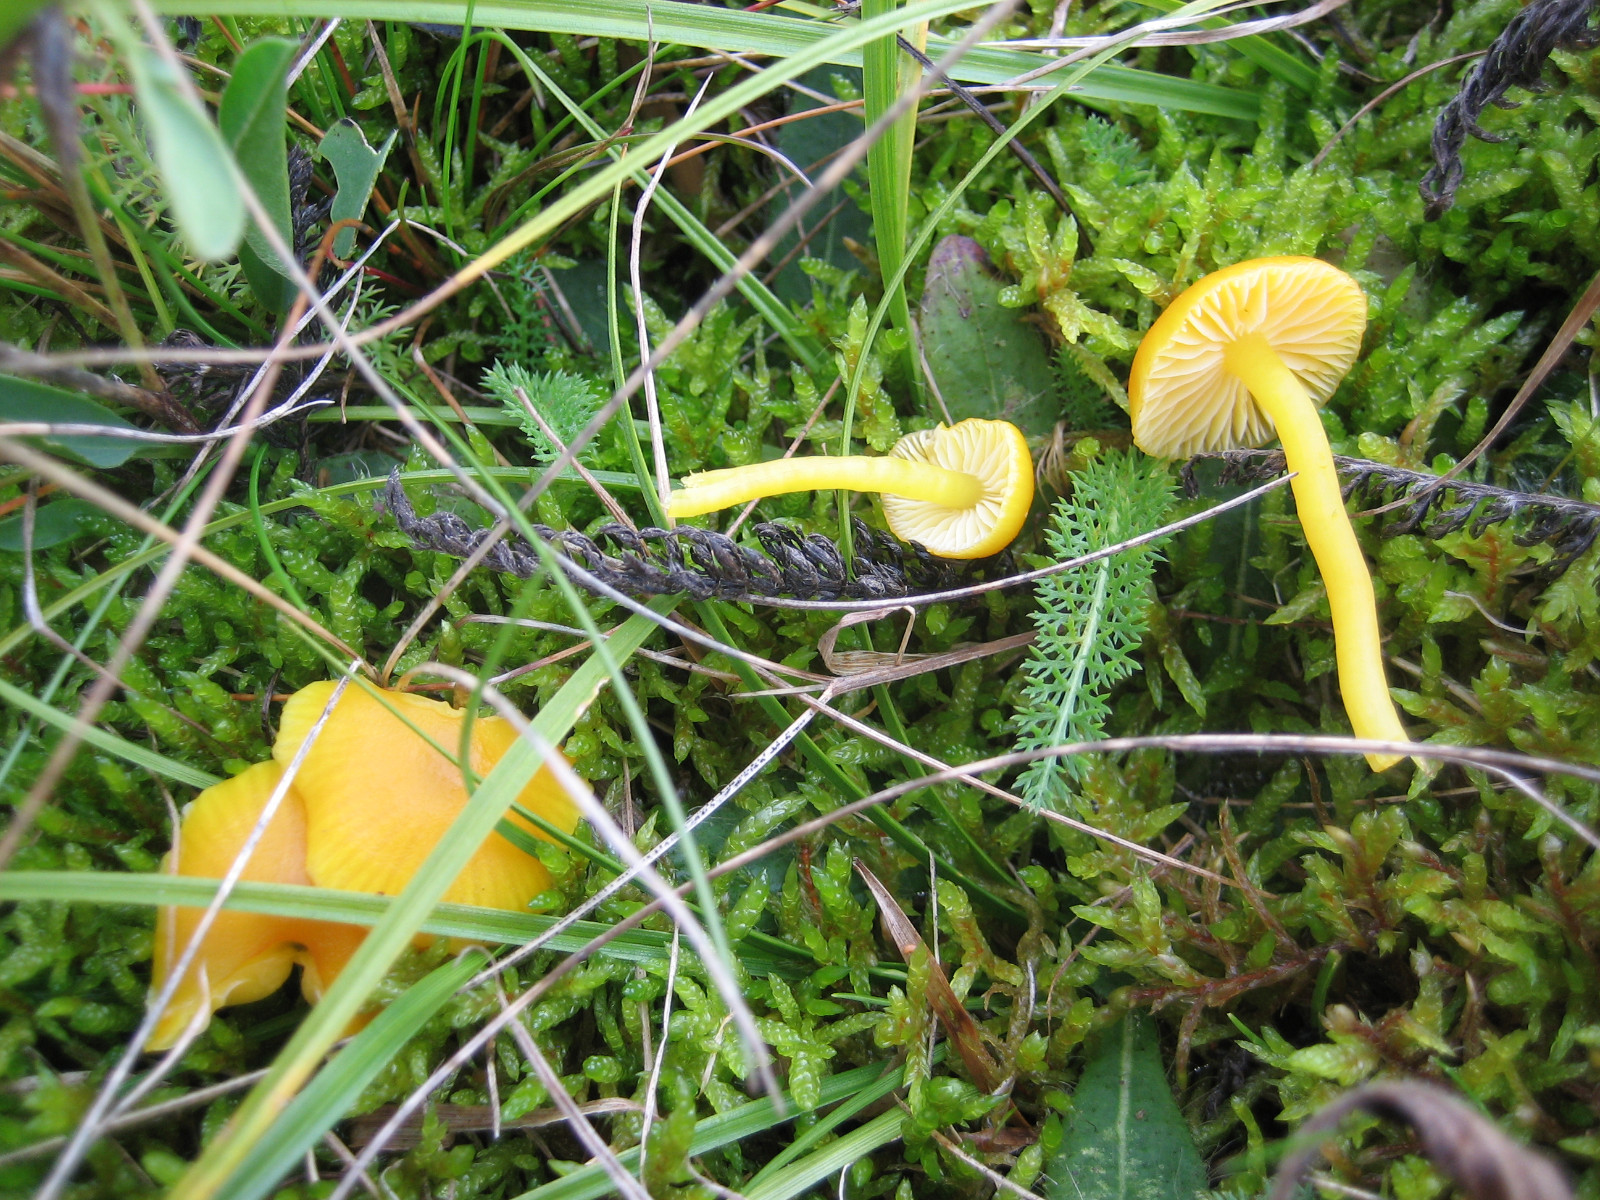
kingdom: Fungi
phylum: Basidiomycota
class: Agaricomycetes
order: Agaricales
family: Hygrophoraceae
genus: Hygrocybe
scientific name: Hygrocybe ceracea
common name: voksgul vokshat
